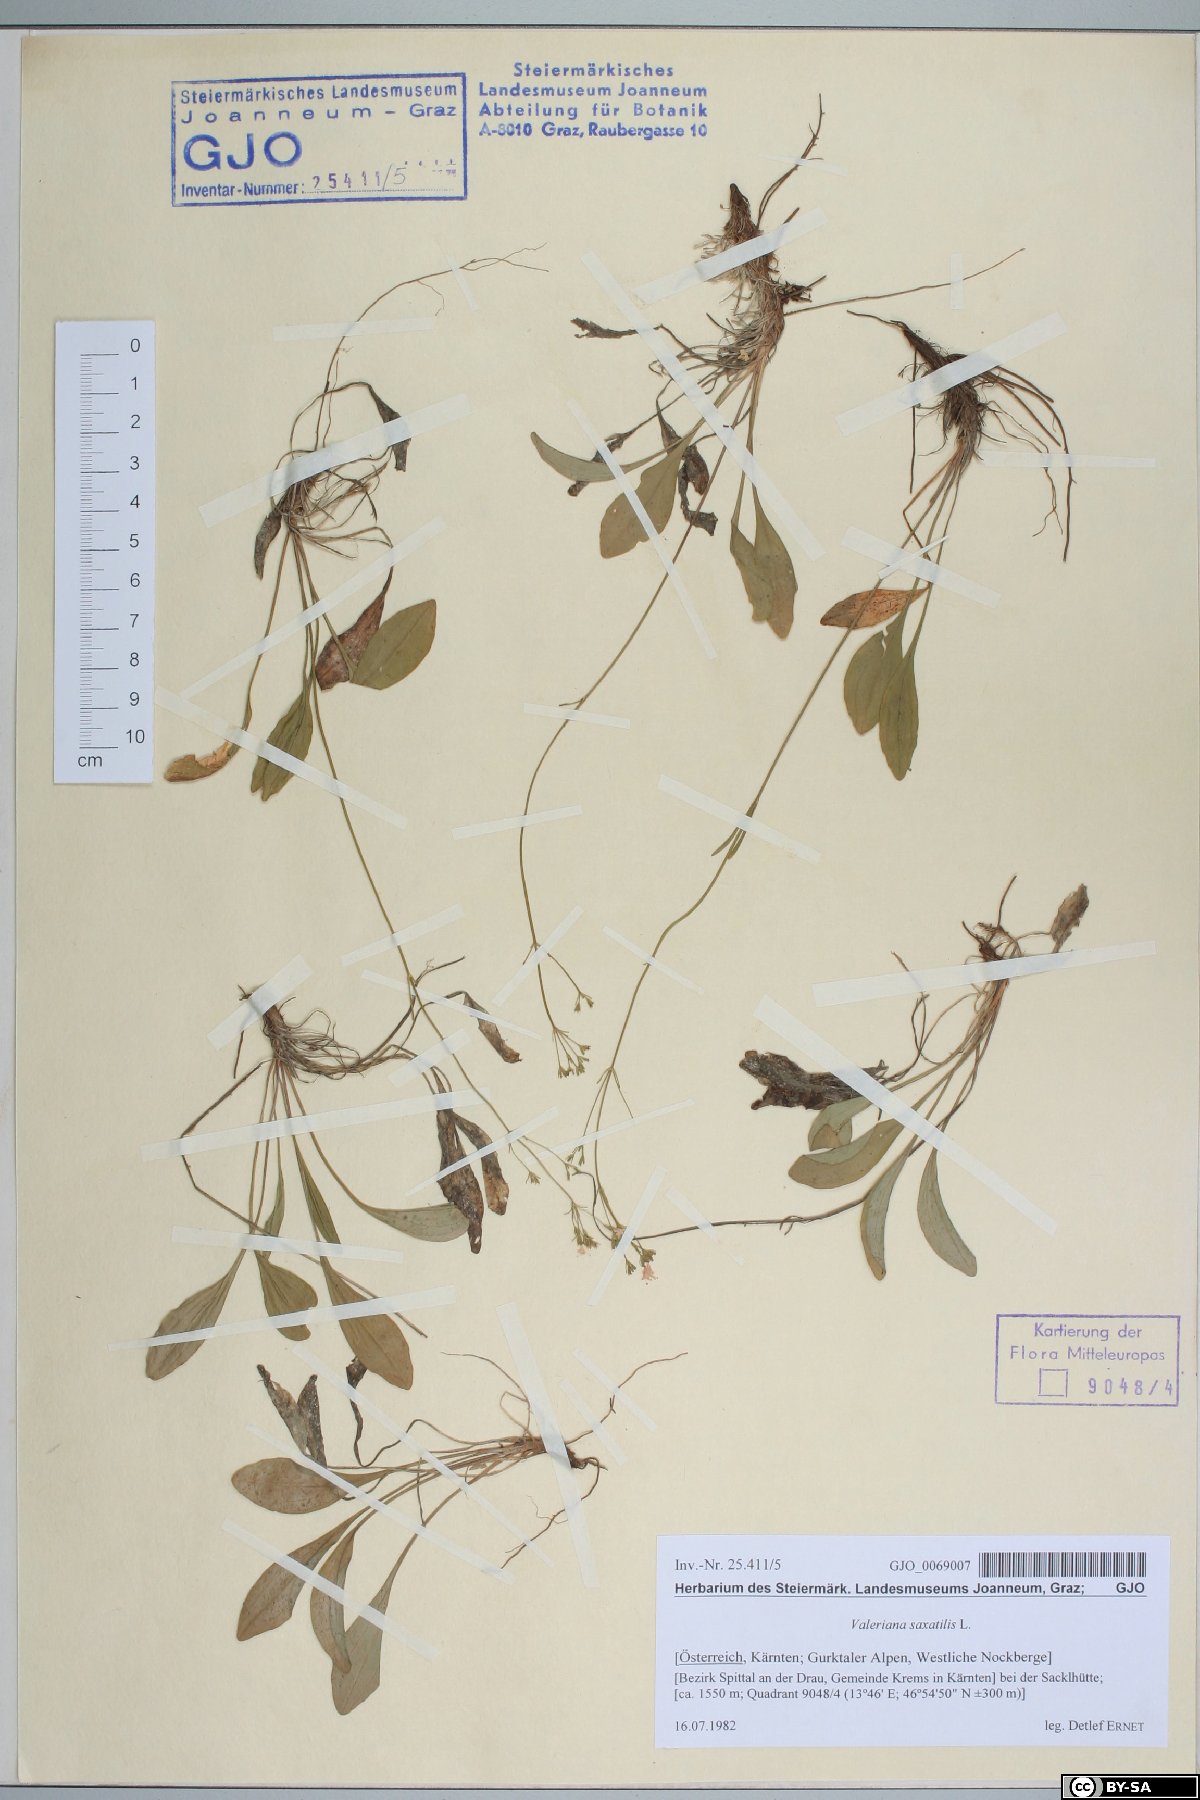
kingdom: Plantae
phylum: Tracheophyta
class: Magnoliopsida
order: Dipsacales
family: Caprifoliaceae
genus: Valeriana
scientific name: Valeriana saxatilis
